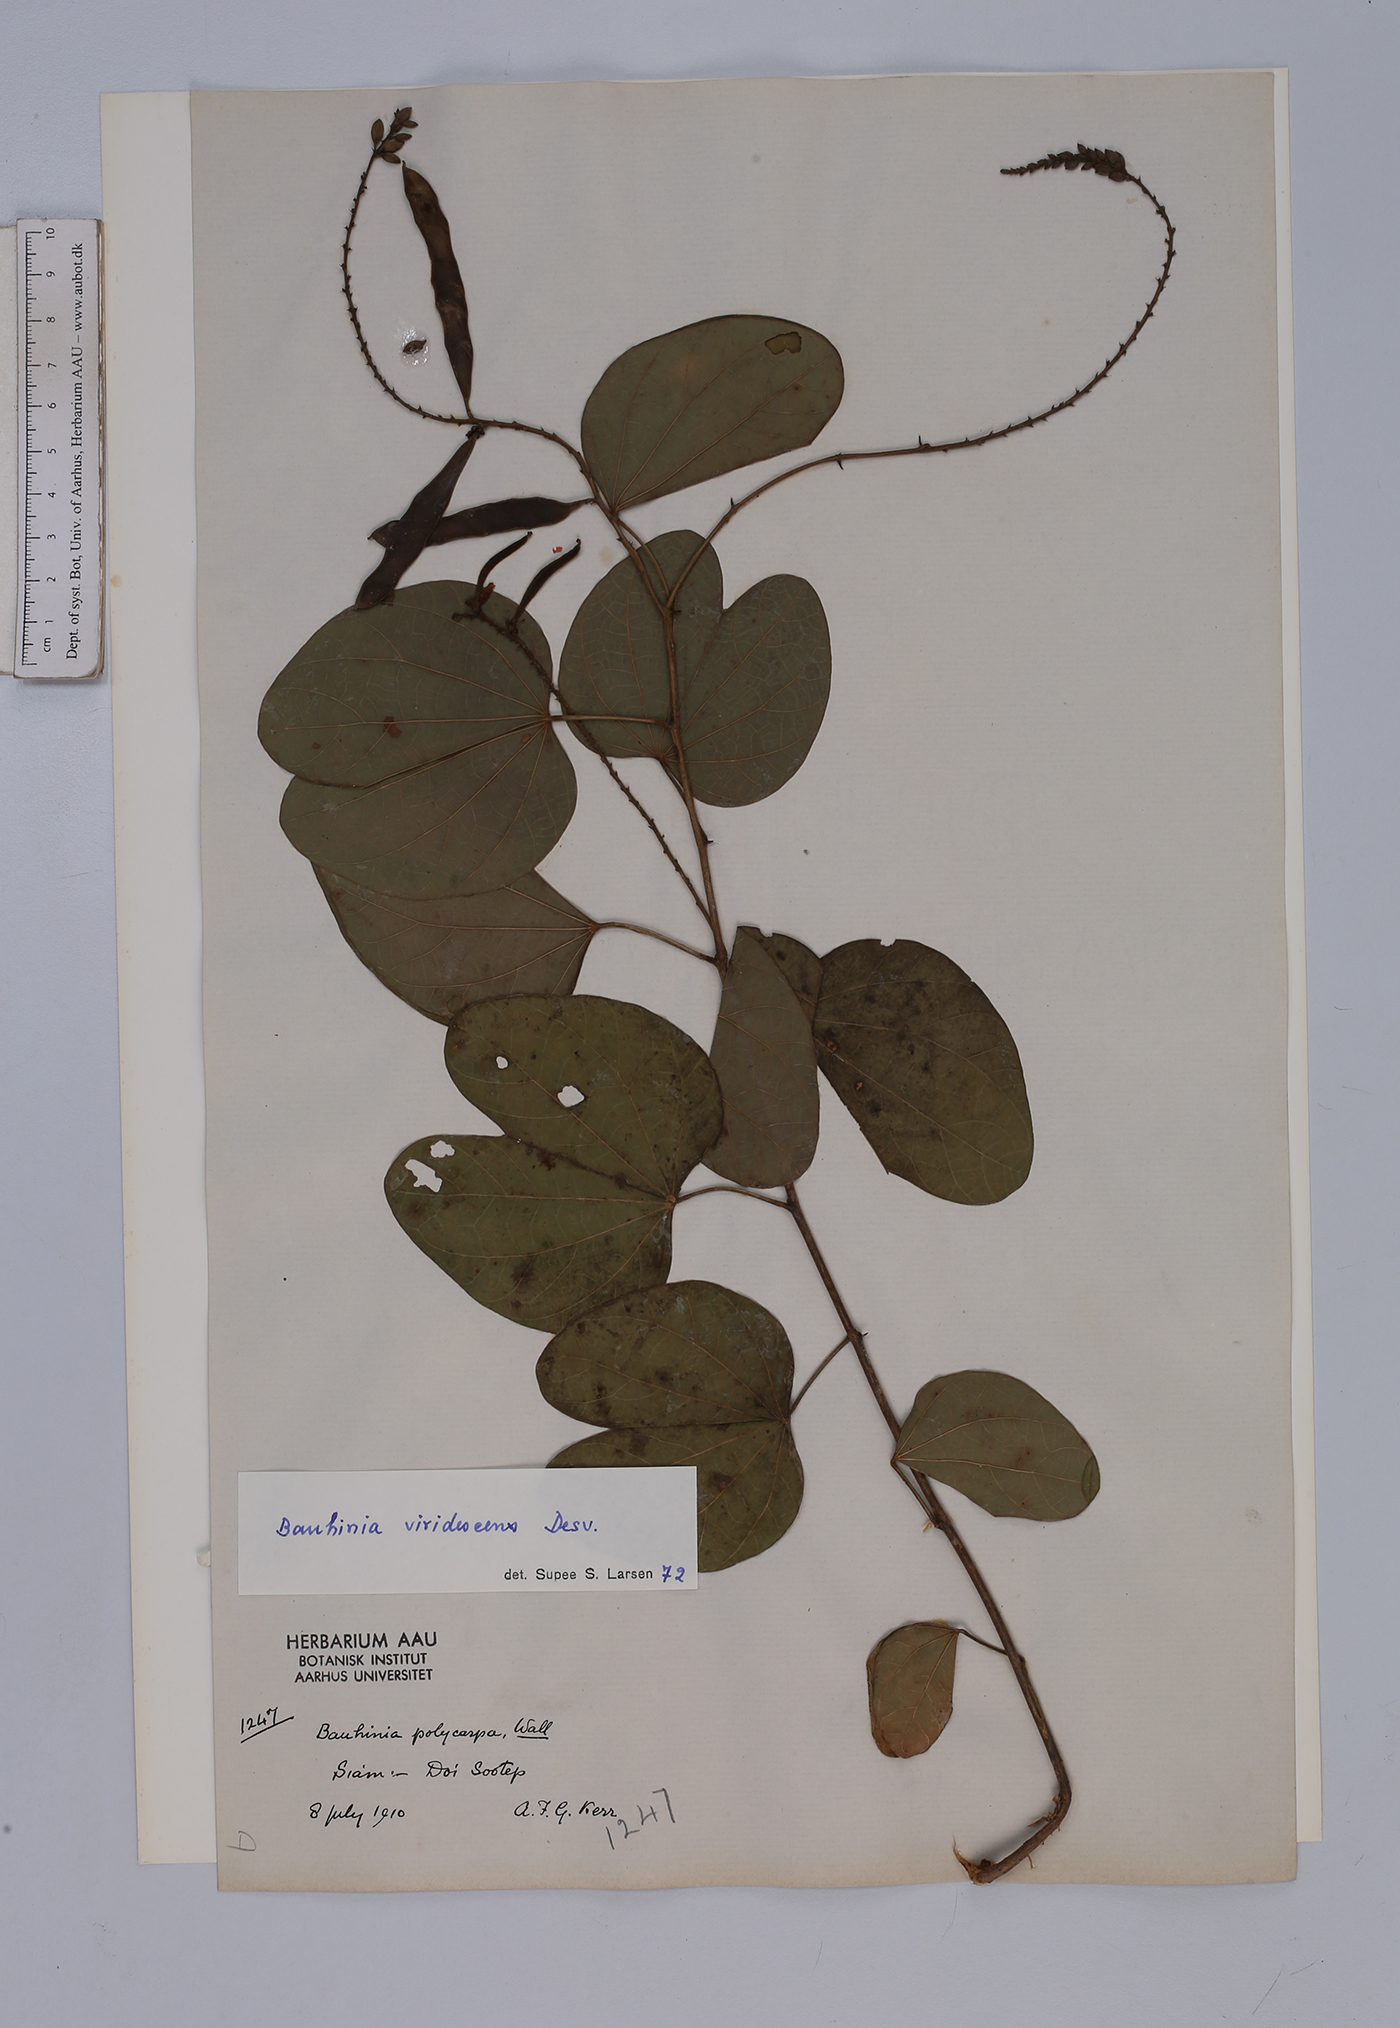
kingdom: Plantae
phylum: Tracheophyta
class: Magnoliopsida
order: Fabales
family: Fabaceae
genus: Bauhinia
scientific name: Bauhinia viridescens
